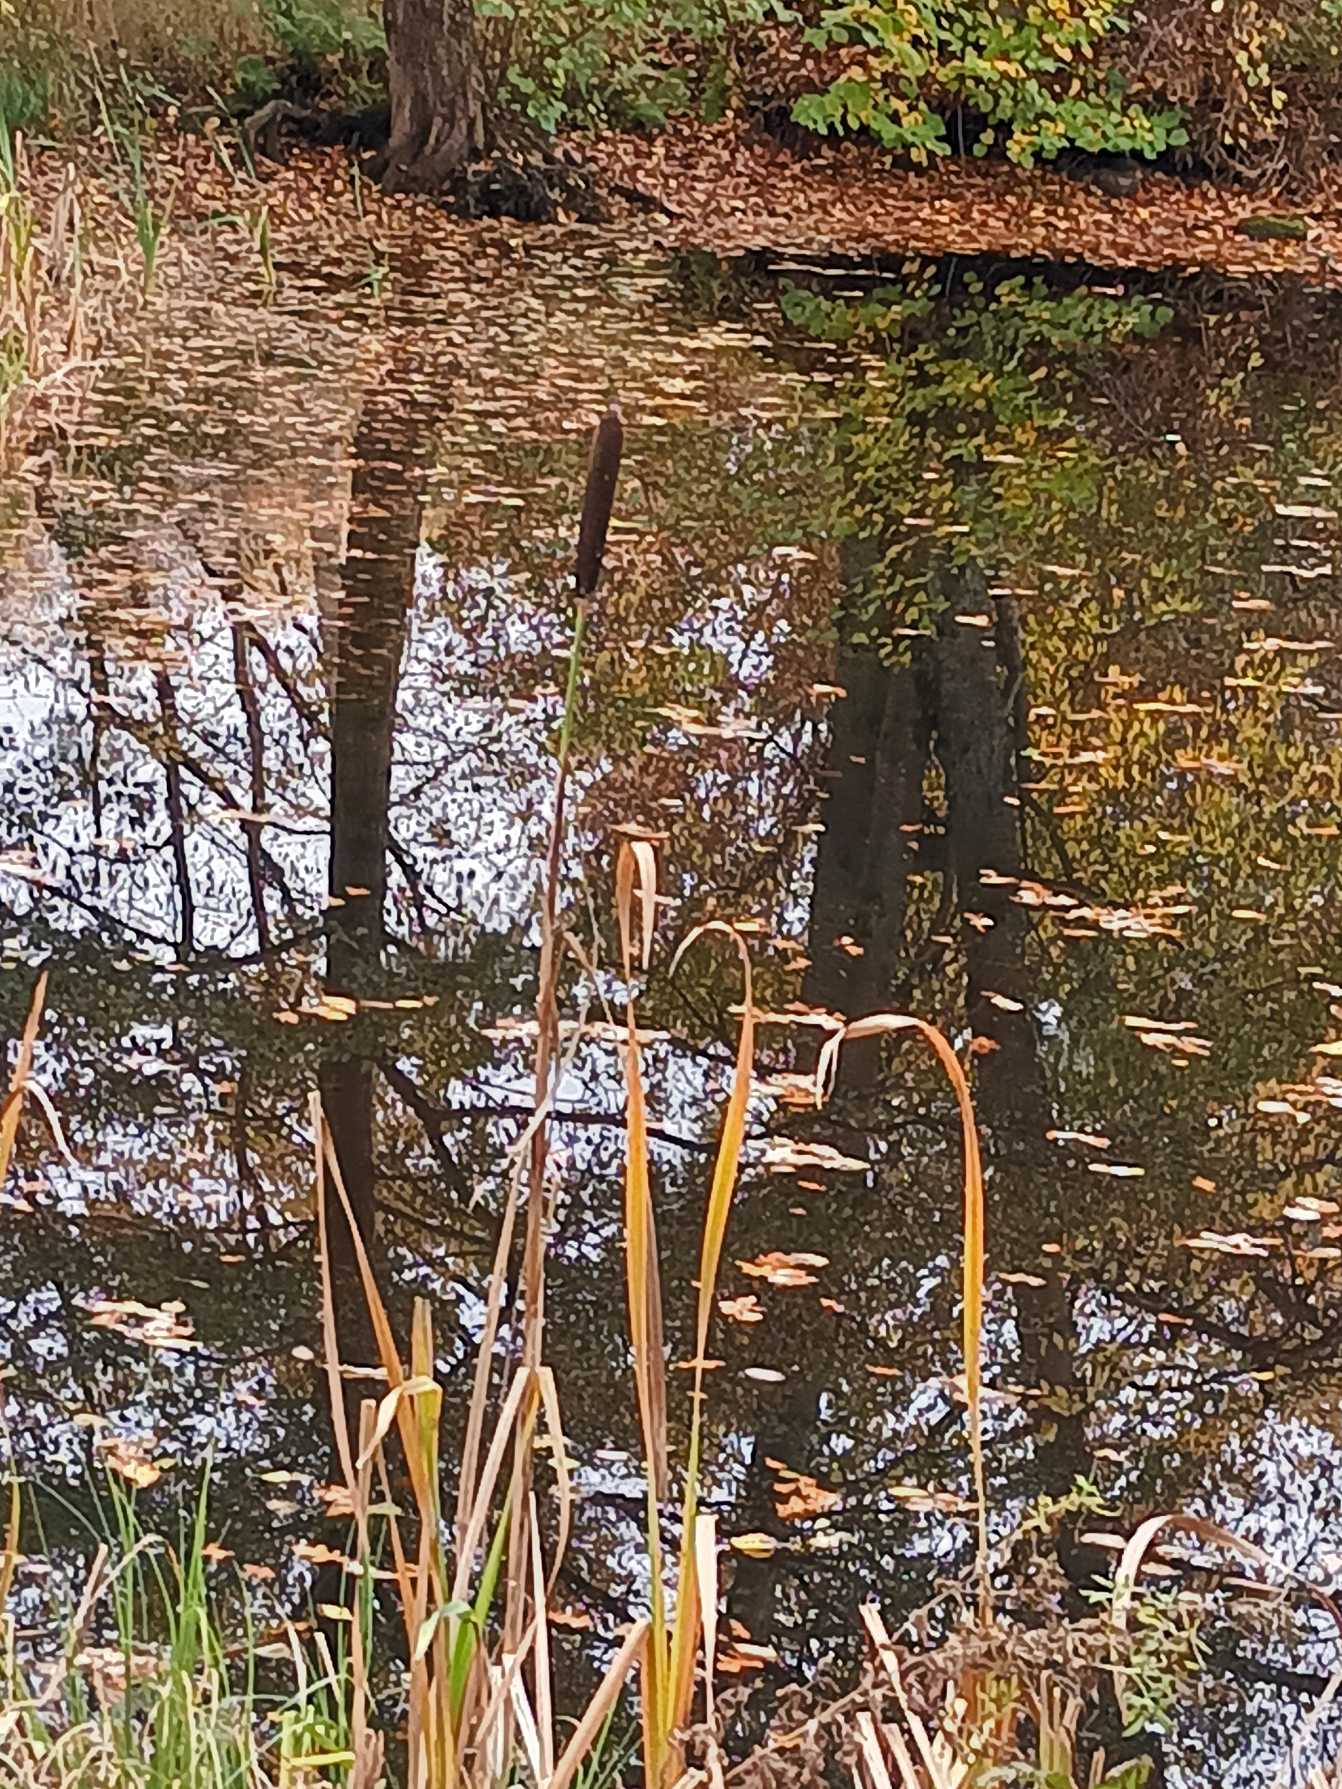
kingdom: Plantae
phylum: Tracheophyta
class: Liliopsida
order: Poales
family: Typhaceae
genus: Typha
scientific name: Typha latifolia
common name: Bredbladet dunhammer
